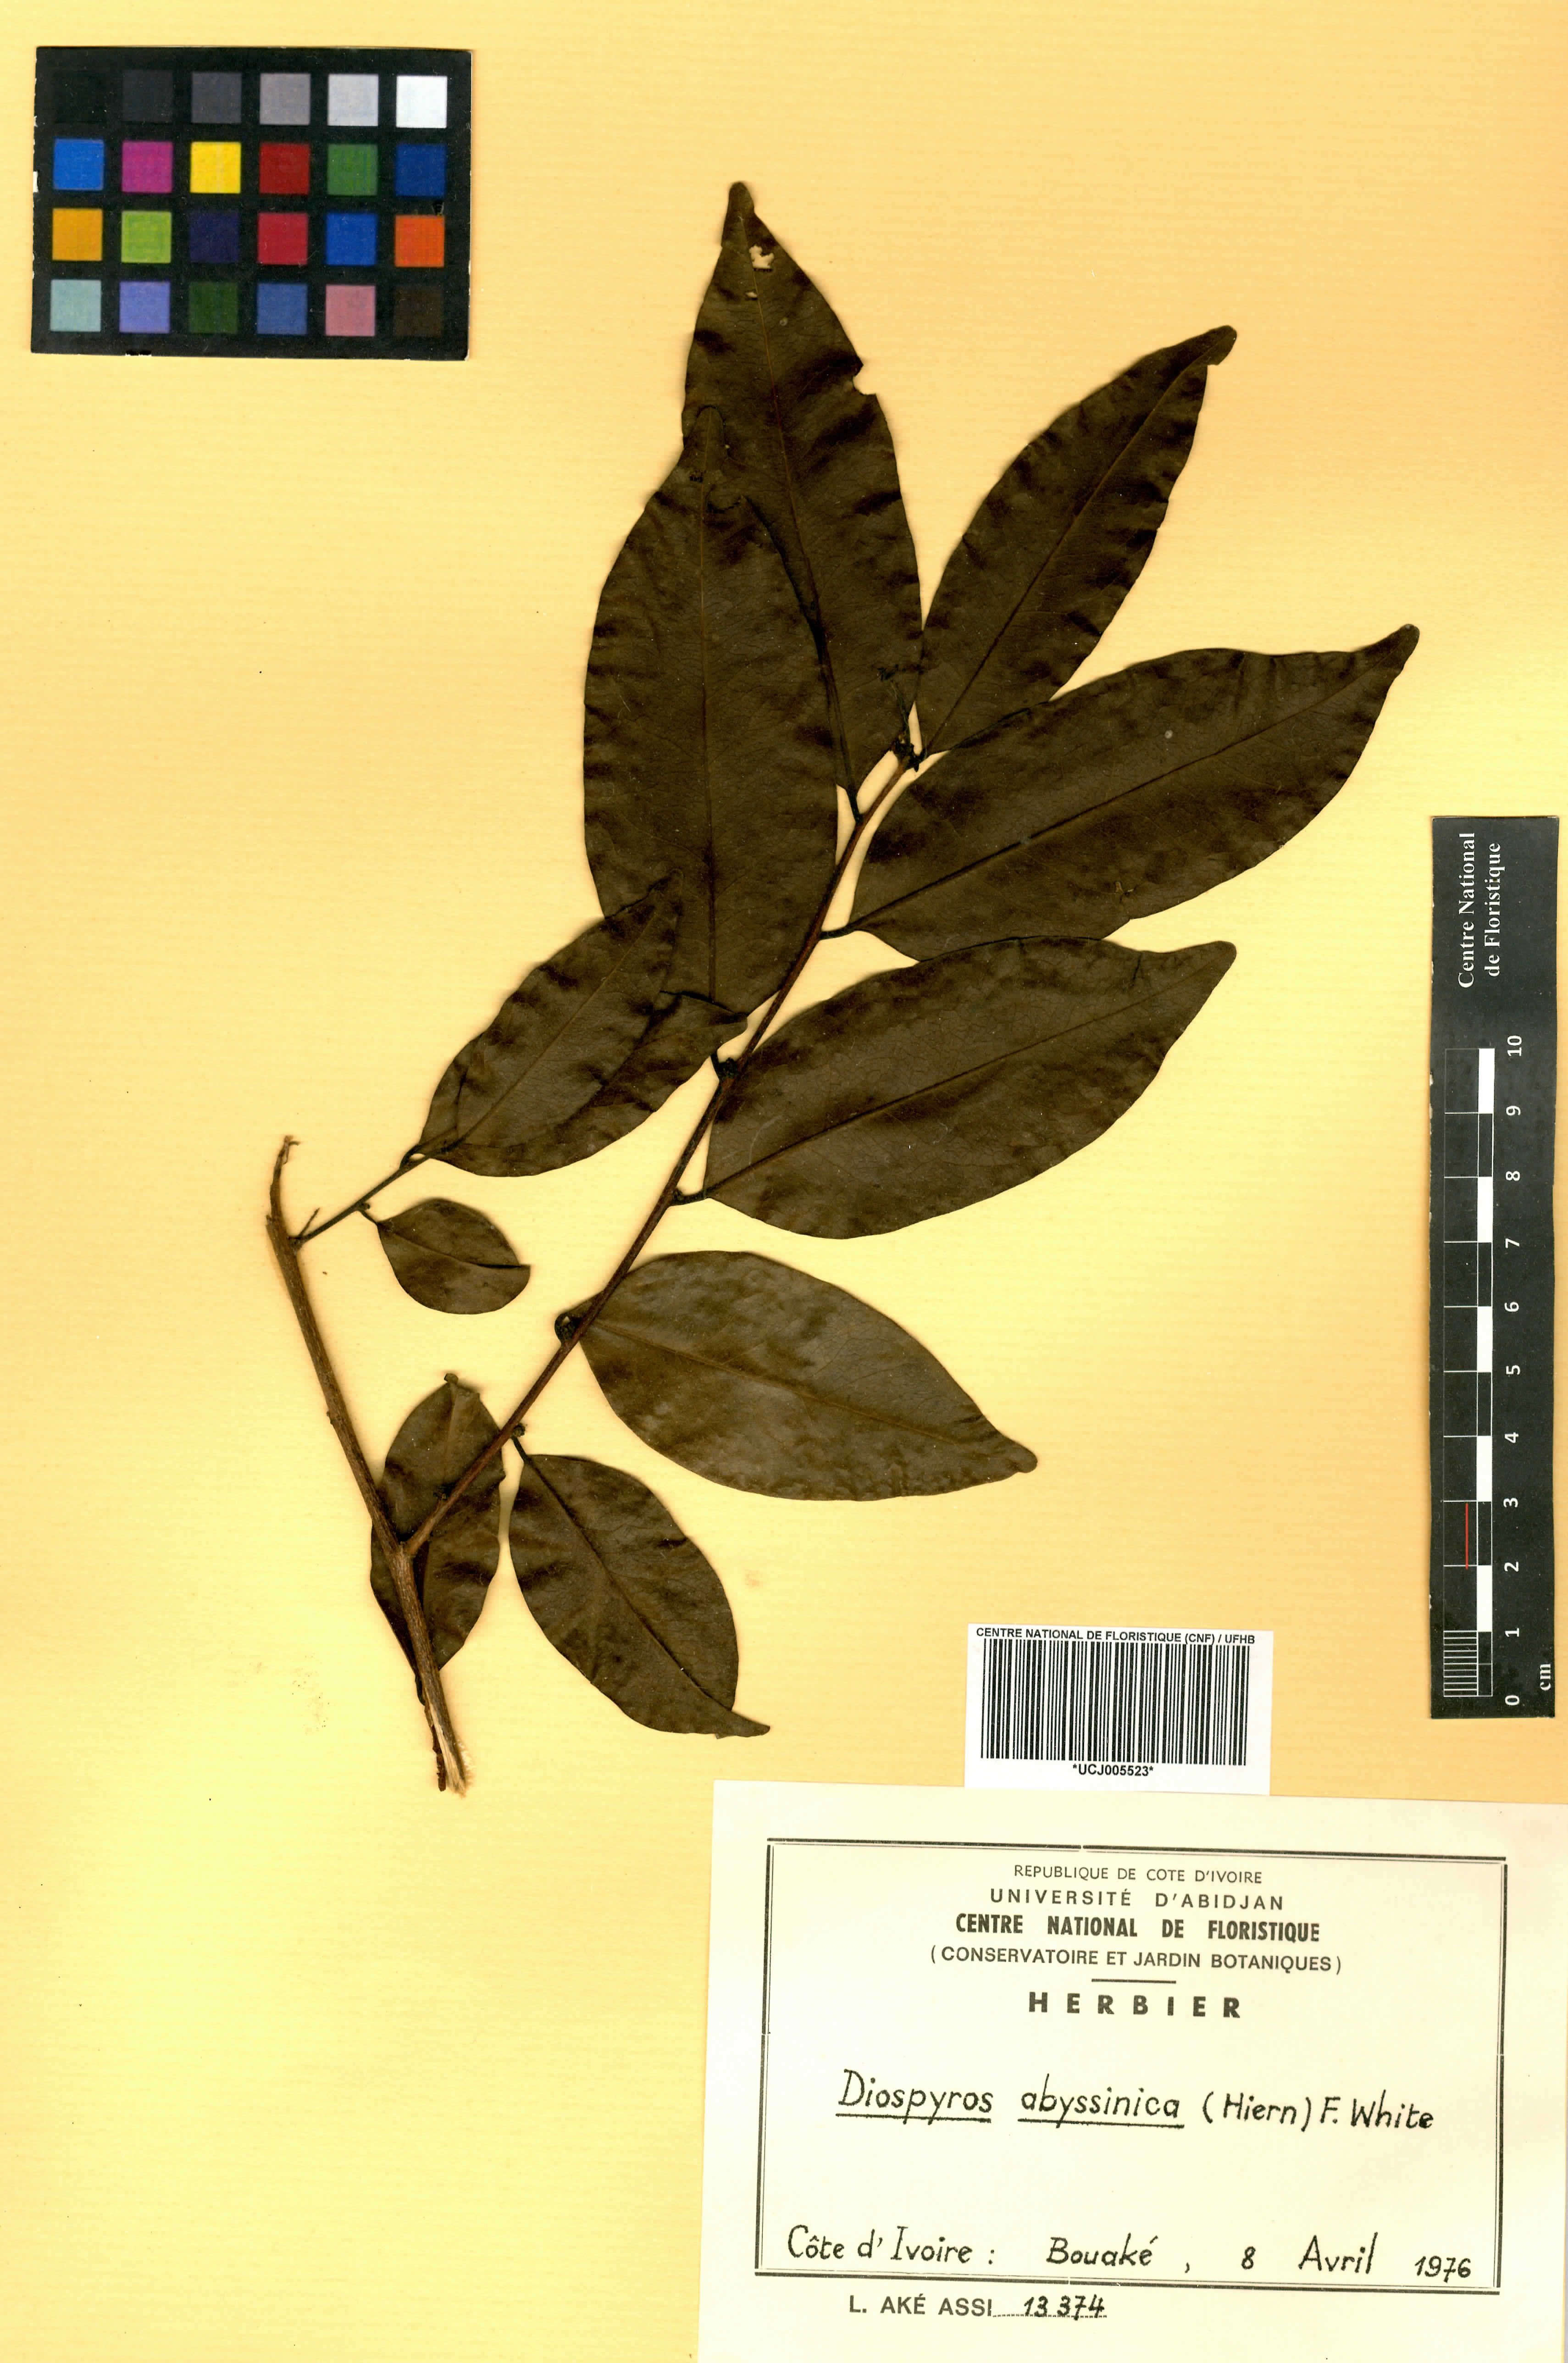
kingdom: Plantae
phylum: Tracheophyta
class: Magnoliopsida
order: Ericales
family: Ebenaceae
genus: Diospyros
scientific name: Diospyros abyssinica
